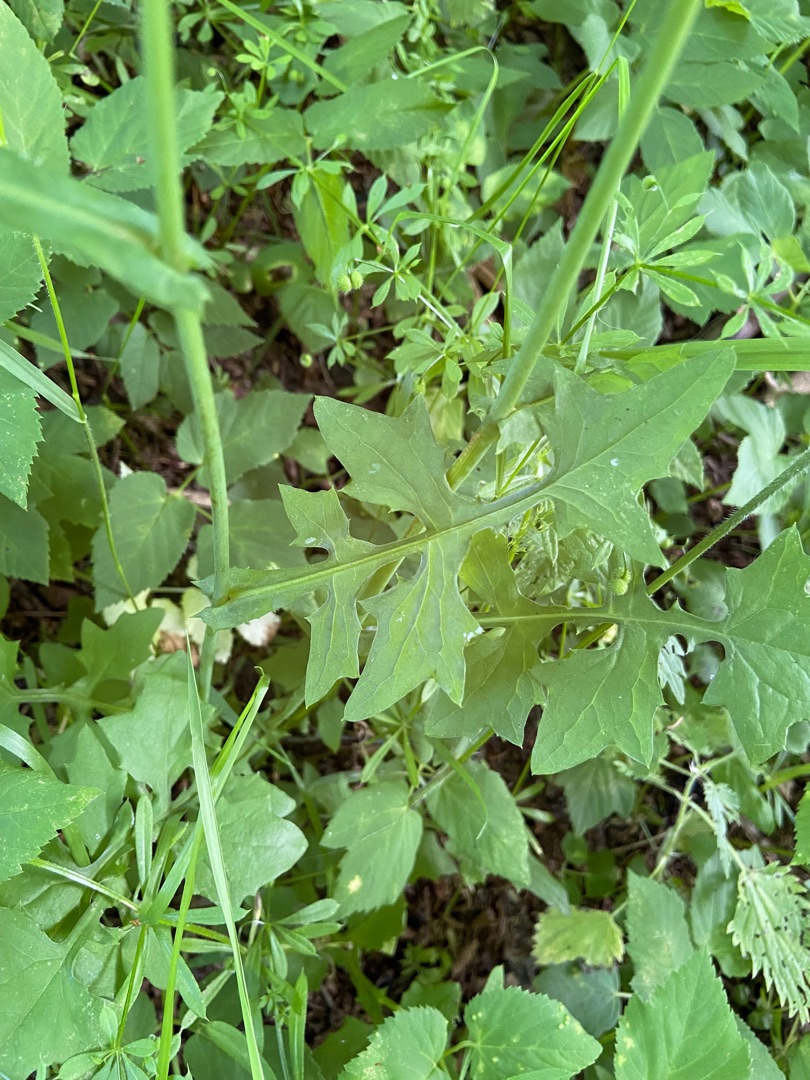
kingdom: Plantae
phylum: Tracheophyta
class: Magnoliopsida
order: Asterales
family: Asteraceae
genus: Mycelis
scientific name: Mycelis muralis
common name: Skov-salat
